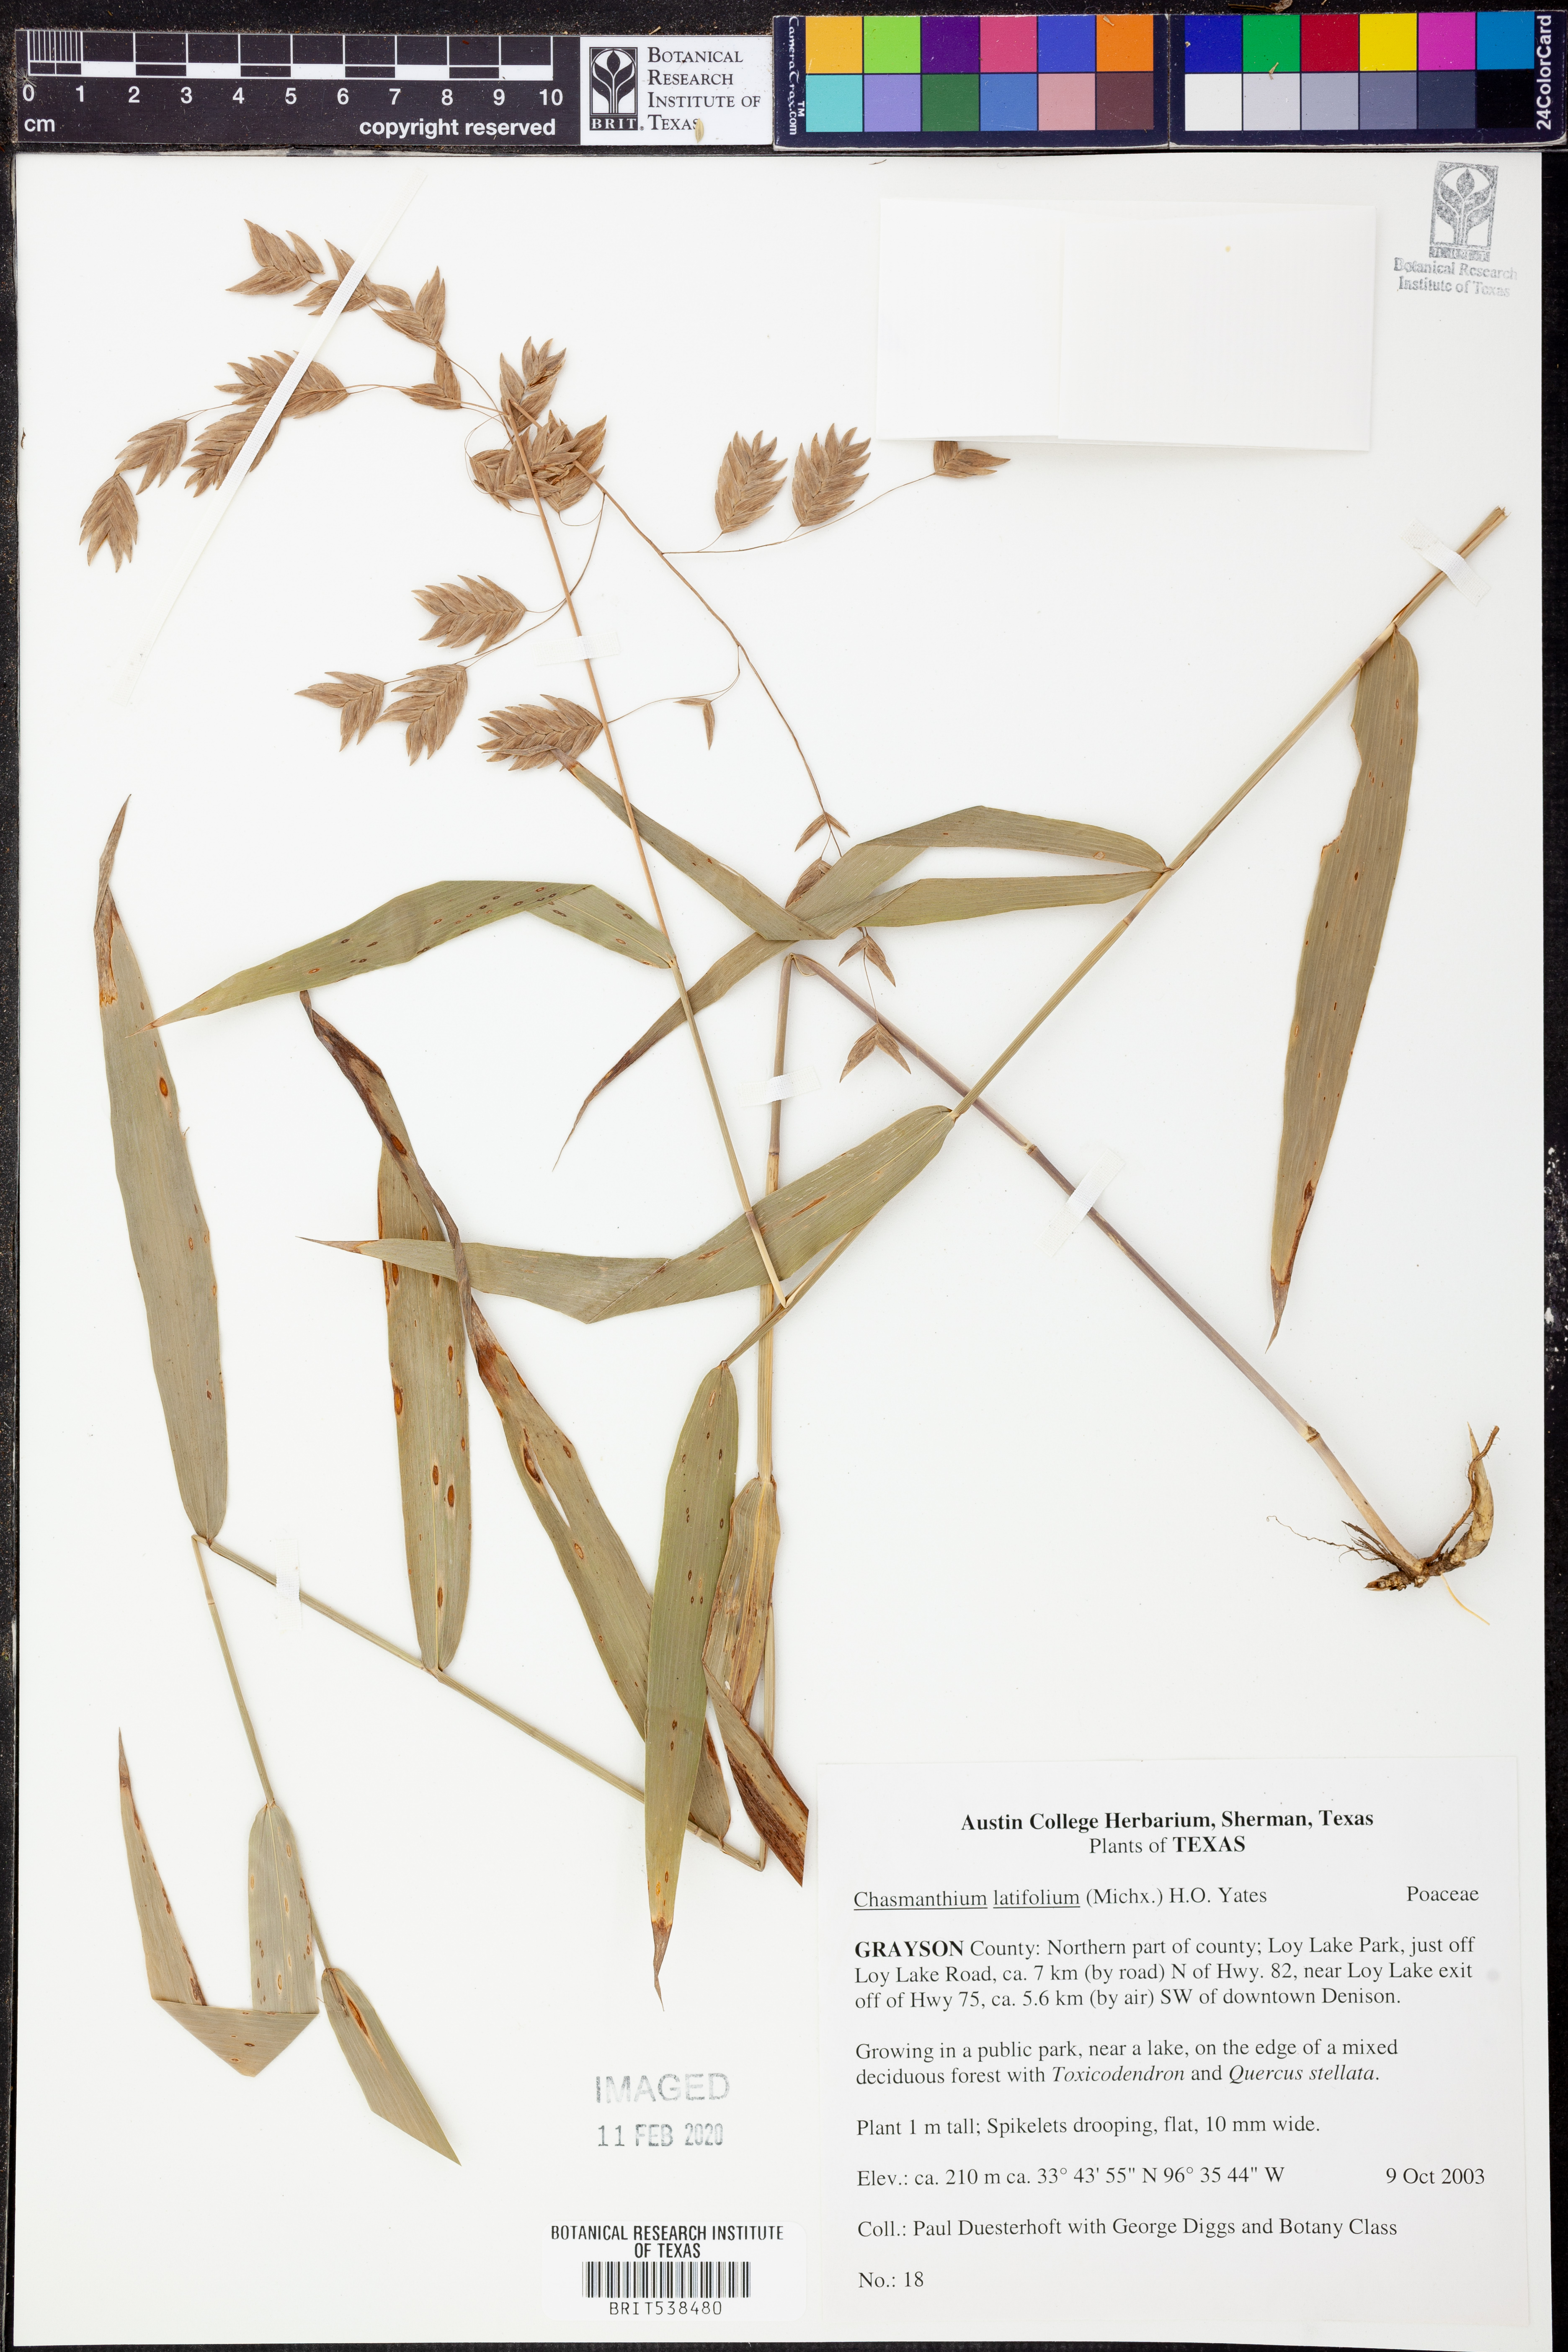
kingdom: Plantae
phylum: Tracheophyta
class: Liliopsida
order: Poales
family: Poaceae
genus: Chasmanthium
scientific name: Chasmanthium latifolium
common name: Broad-leaved chasmanthium
